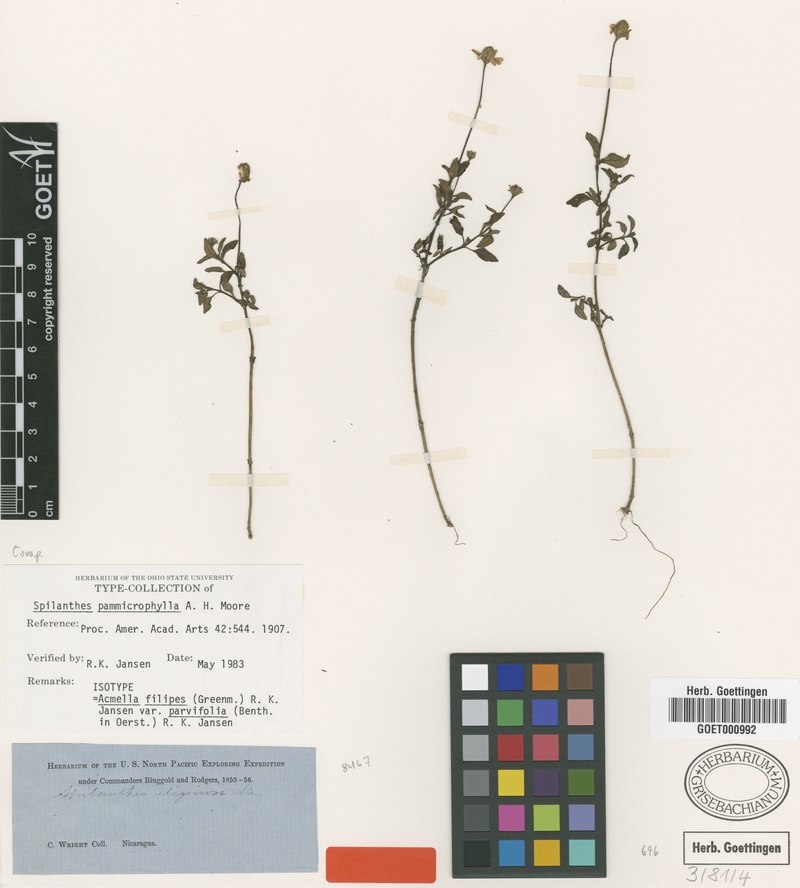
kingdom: Plantae
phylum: Tracheophyta
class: Magnoliopsida
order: Asterales
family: Asteraceae
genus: Acmella
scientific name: Acmella filipes
